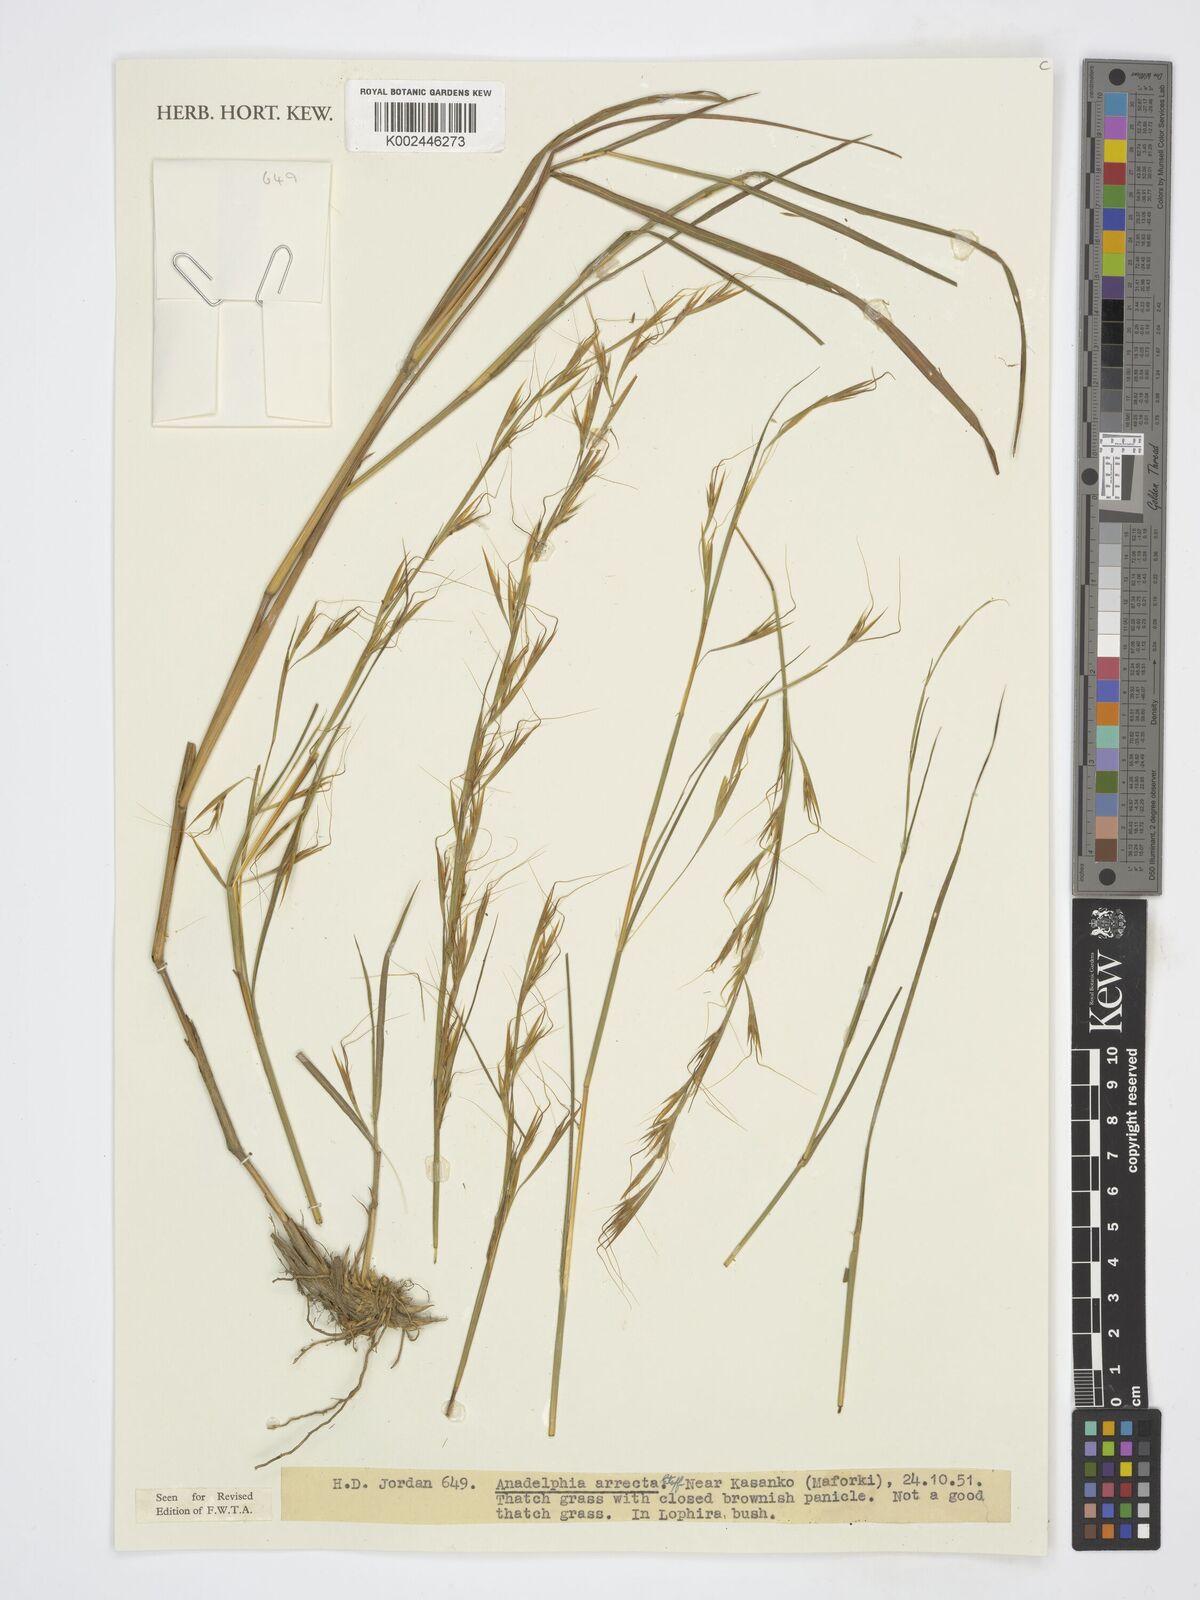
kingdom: Plantae
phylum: Tracheophyta
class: Liliopsida
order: Poales
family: Poaceae
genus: Anadelphia
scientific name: Anadelphia afzeliana
